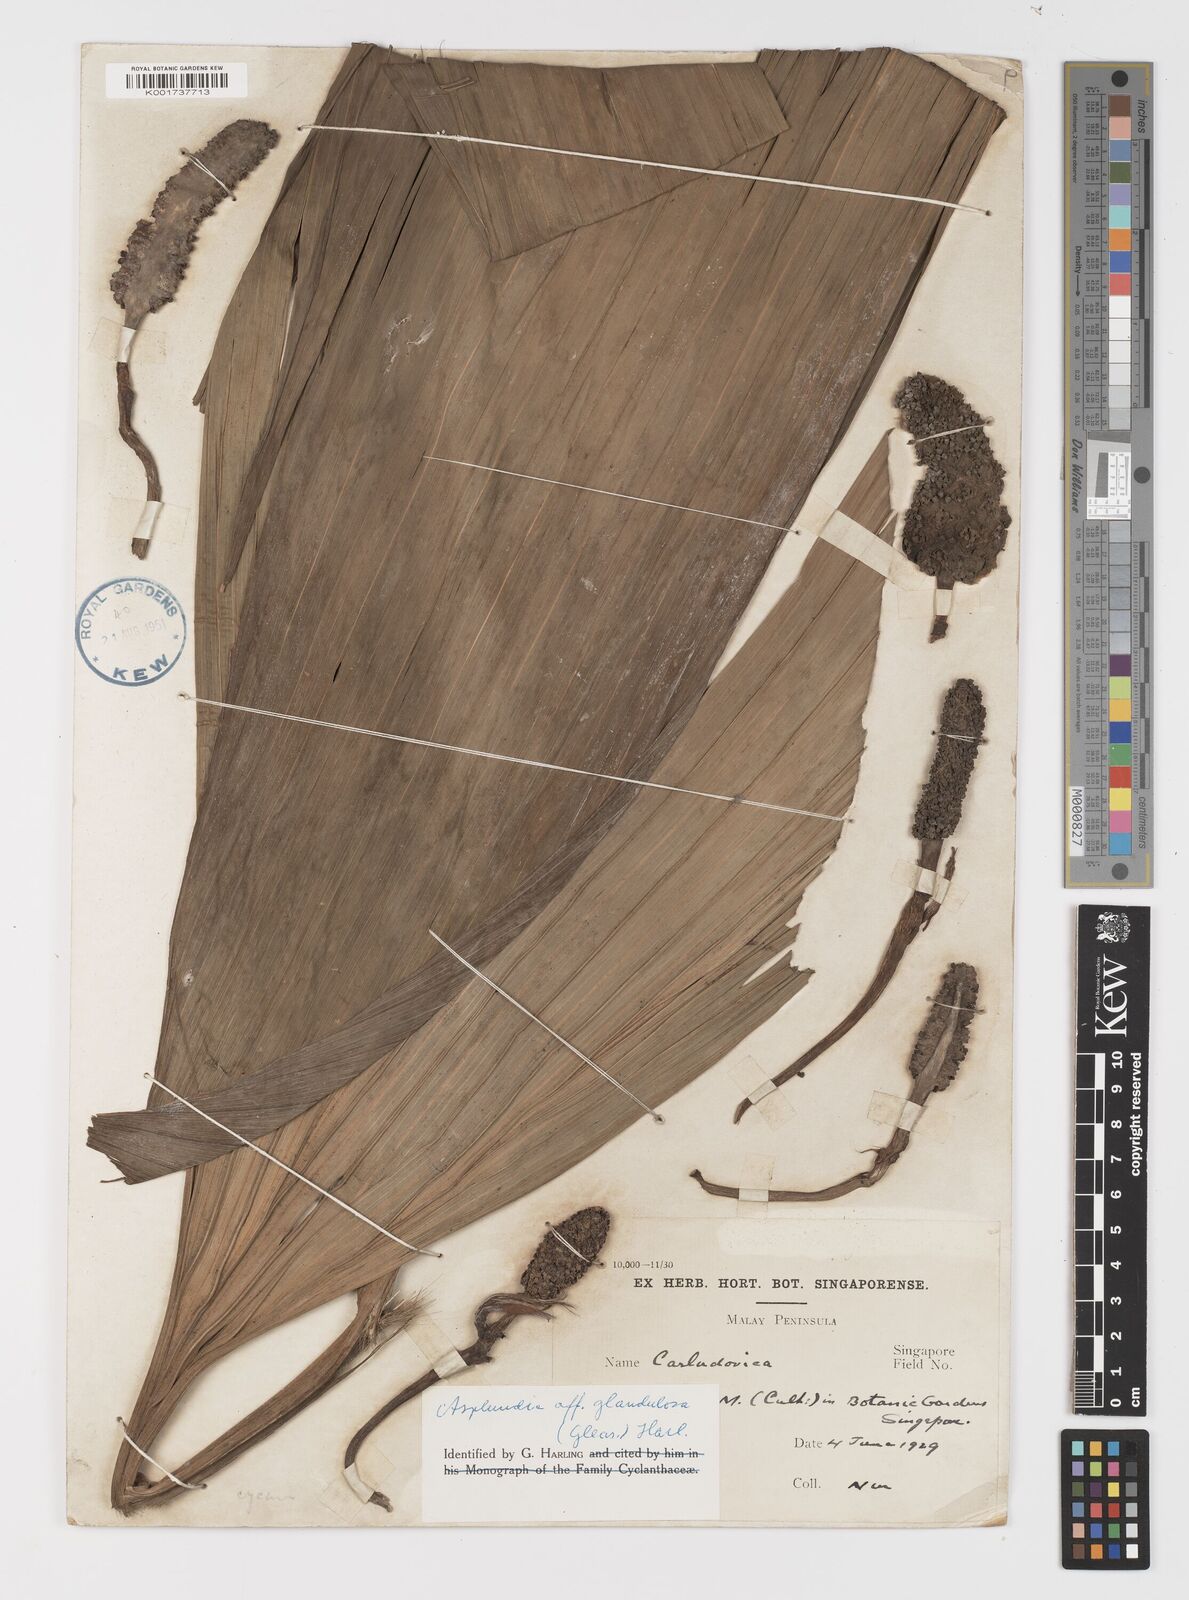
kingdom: Plantae
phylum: Tracheophyta
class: Liliopsida
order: Pandanales
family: Cyclanthaceae
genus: Asplundia
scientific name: Asplundia glandulosa
